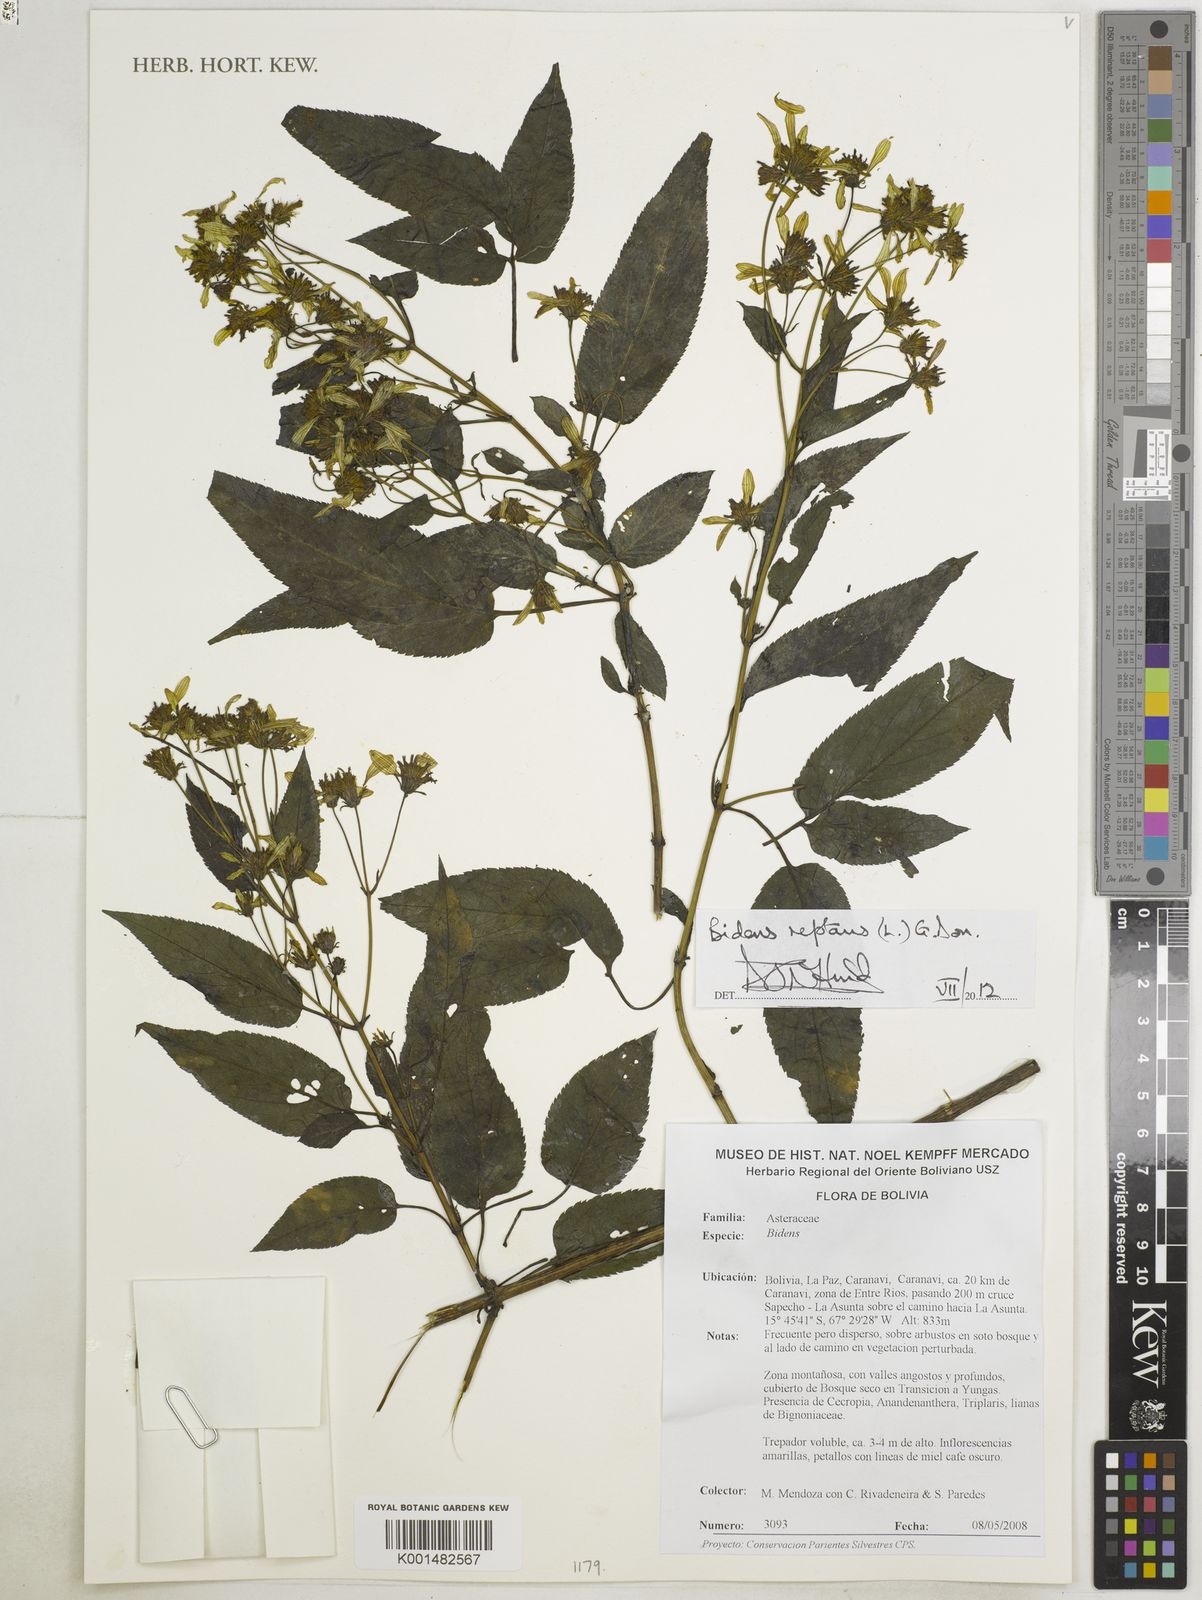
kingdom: Plantae
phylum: Tracheophyta
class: Magnoliopsida
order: Asterales
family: Asteraceae
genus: Bidens
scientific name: Bidens reptans
